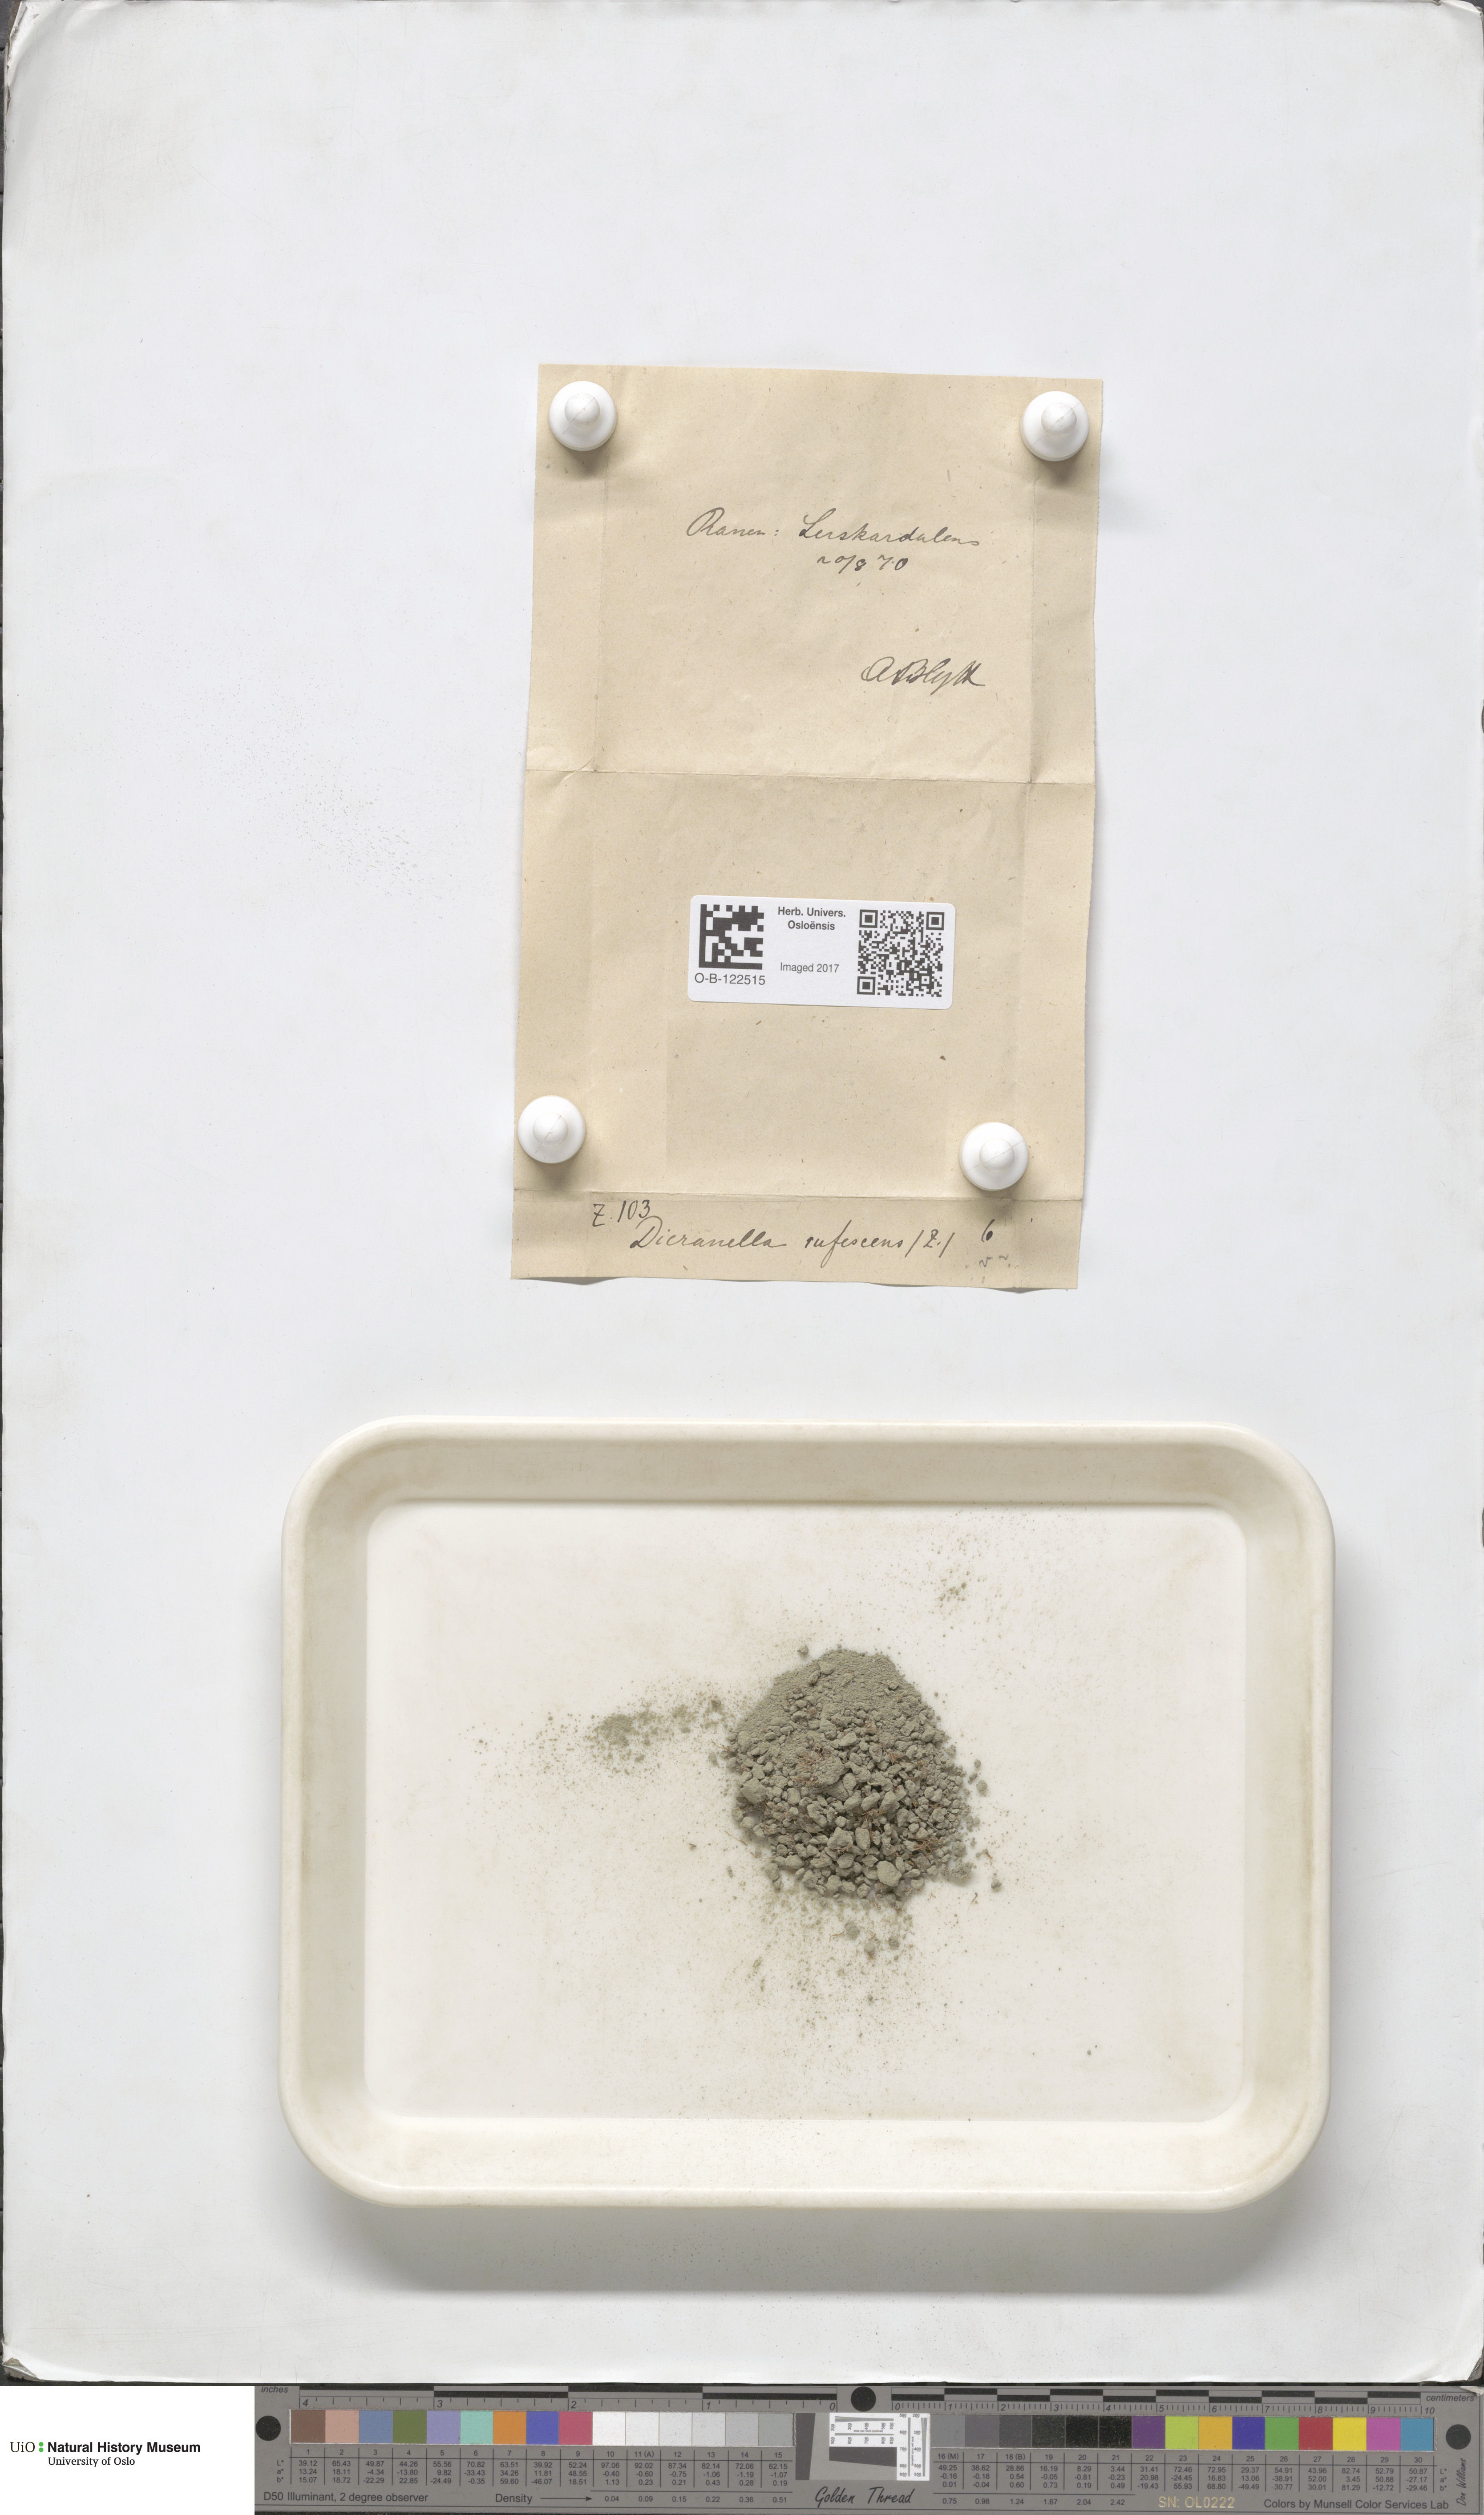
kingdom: Plantae
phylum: Bryophyta
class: Bryopsida
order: Dicranales
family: Dicranellaceae
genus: Dicranella
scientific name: Dicranella rufescens
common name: Red forklet moss
